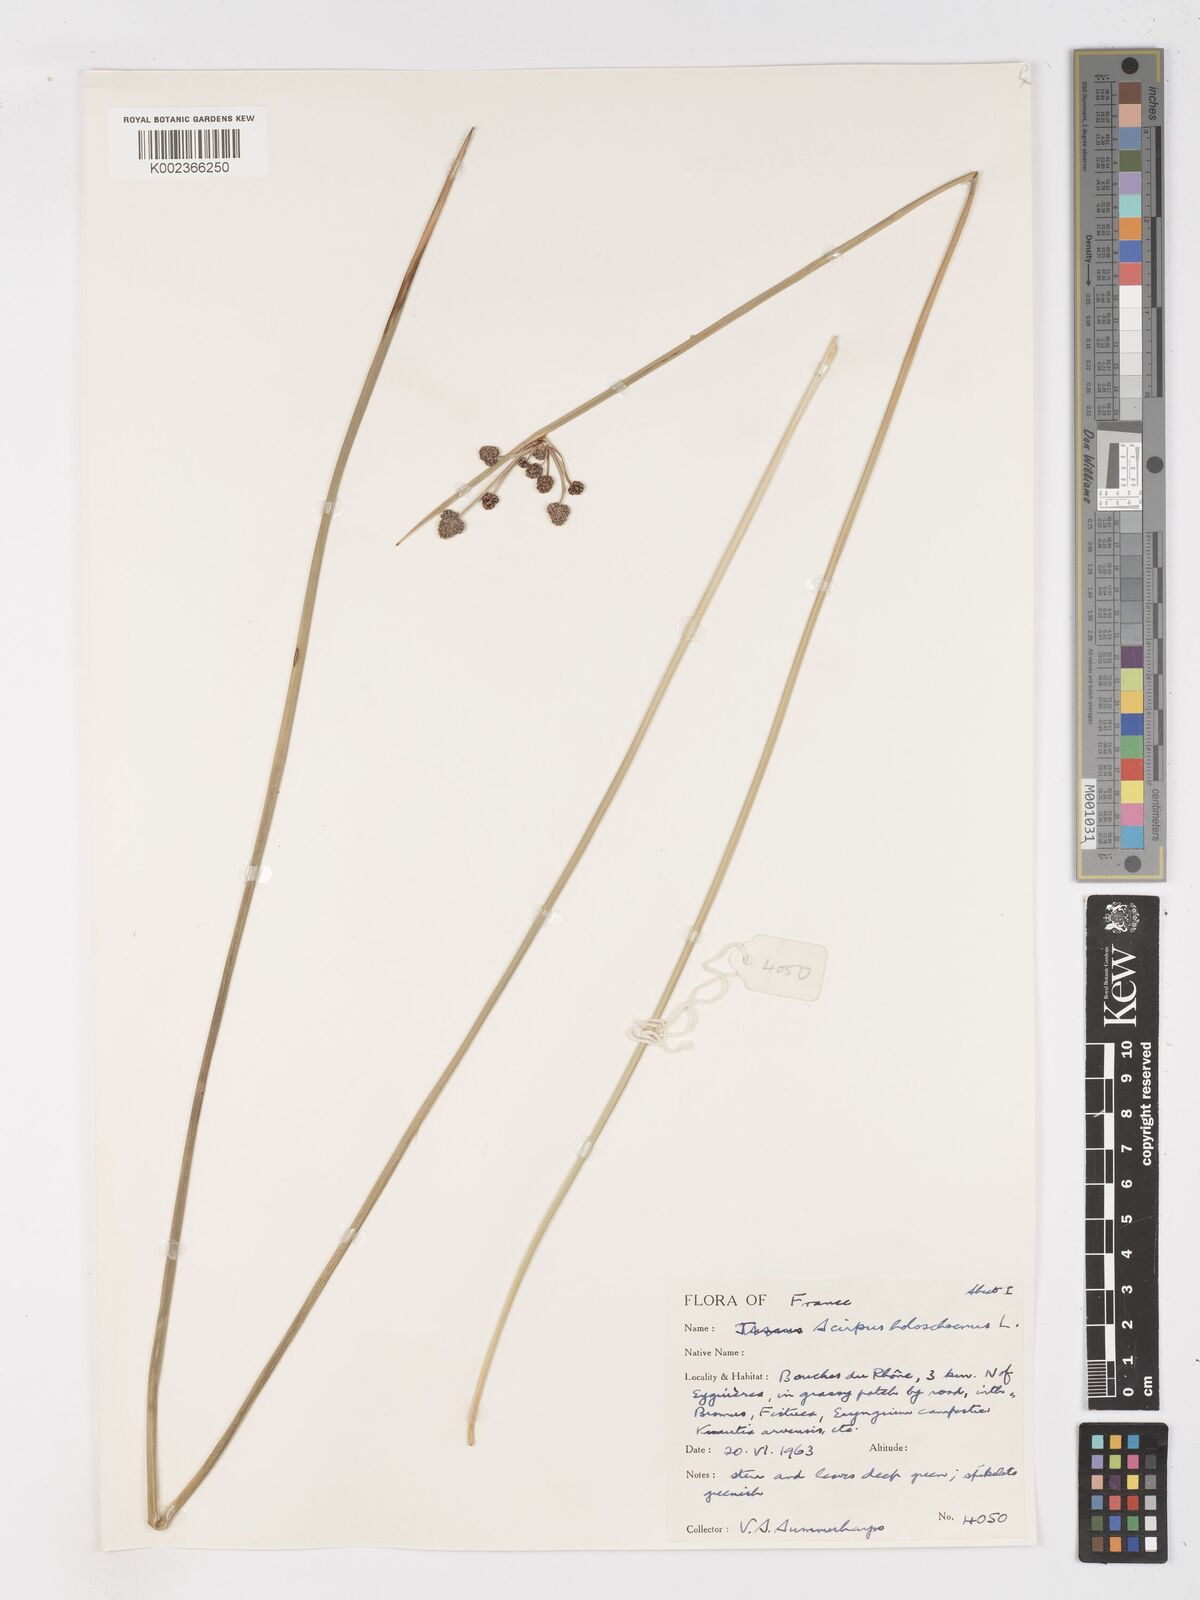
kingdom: Plantae
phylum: Tracheophyta
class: Liliopsida
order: Poales
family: Cyperaceae
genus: Scirpoides
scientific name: Scirpoides holoschoenus
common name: Round-headed club-rush
